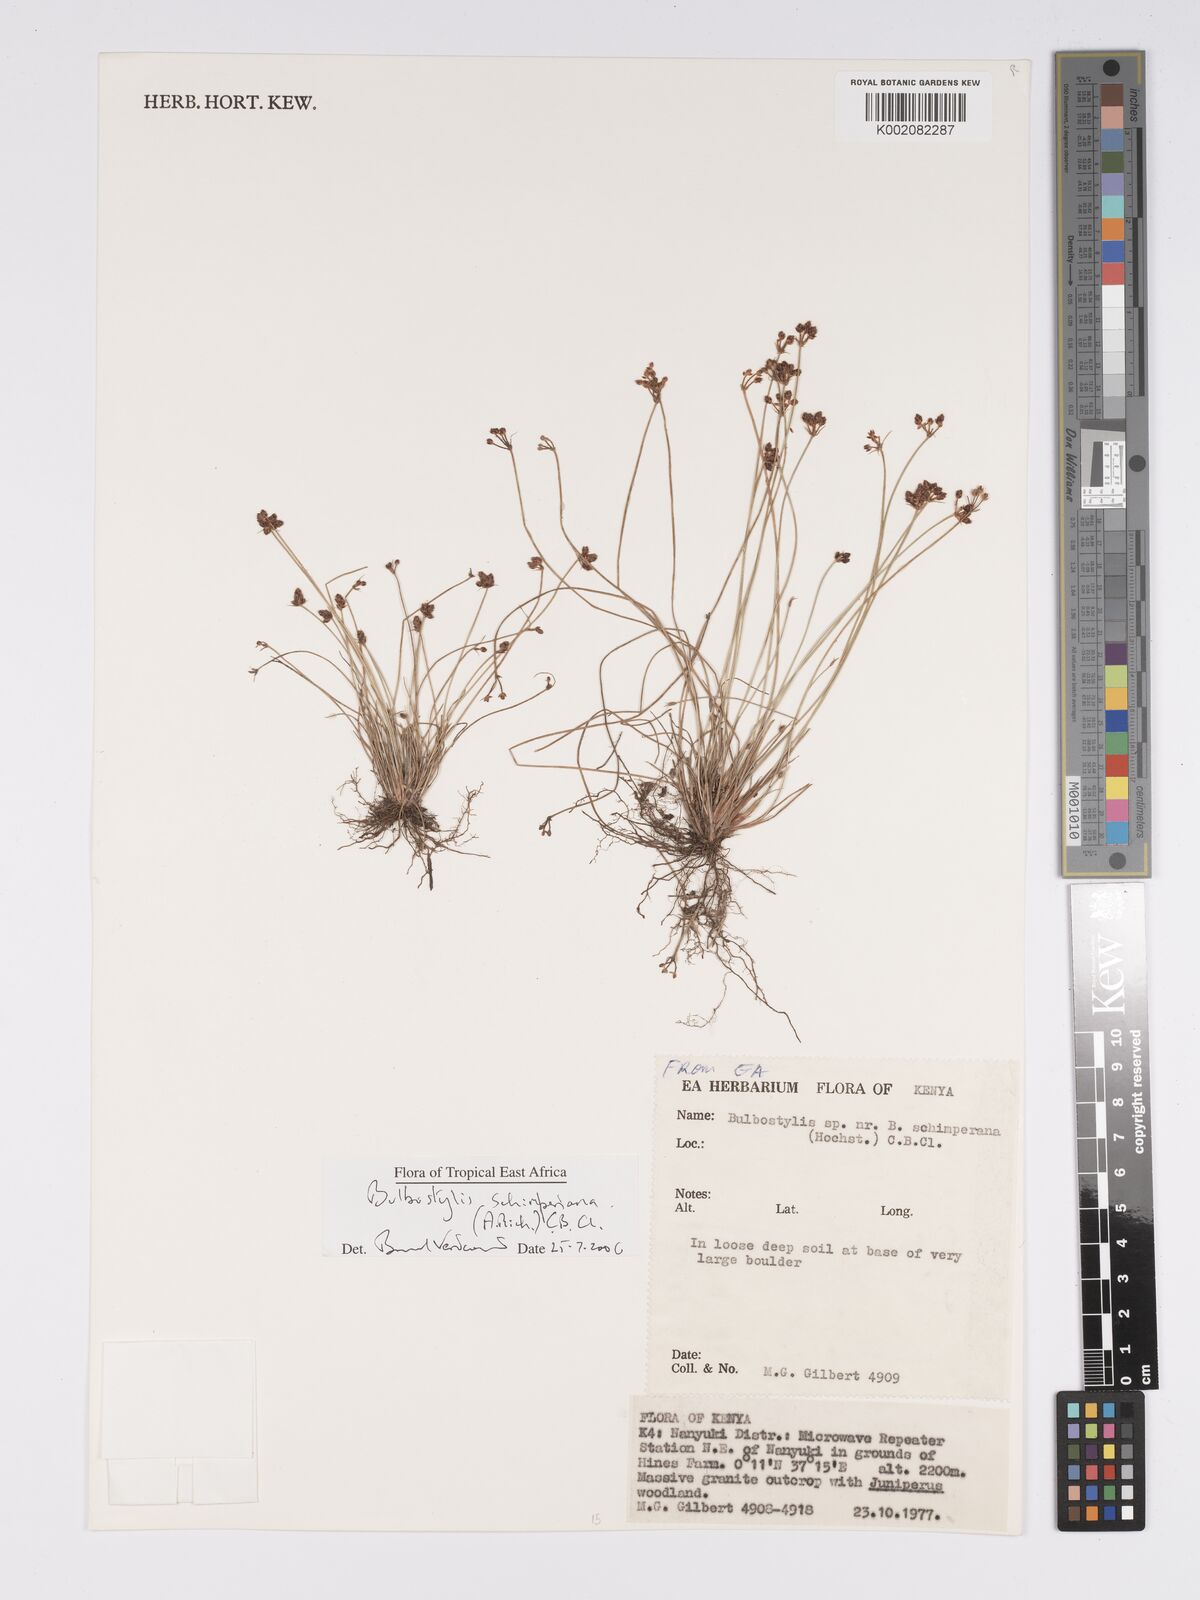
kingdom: Plantae
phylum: Tracheophyta
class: Liliopsida
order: Poales
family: Cyperaceae
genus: Bulbostylis
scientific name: Bulbostylis schimperiana
